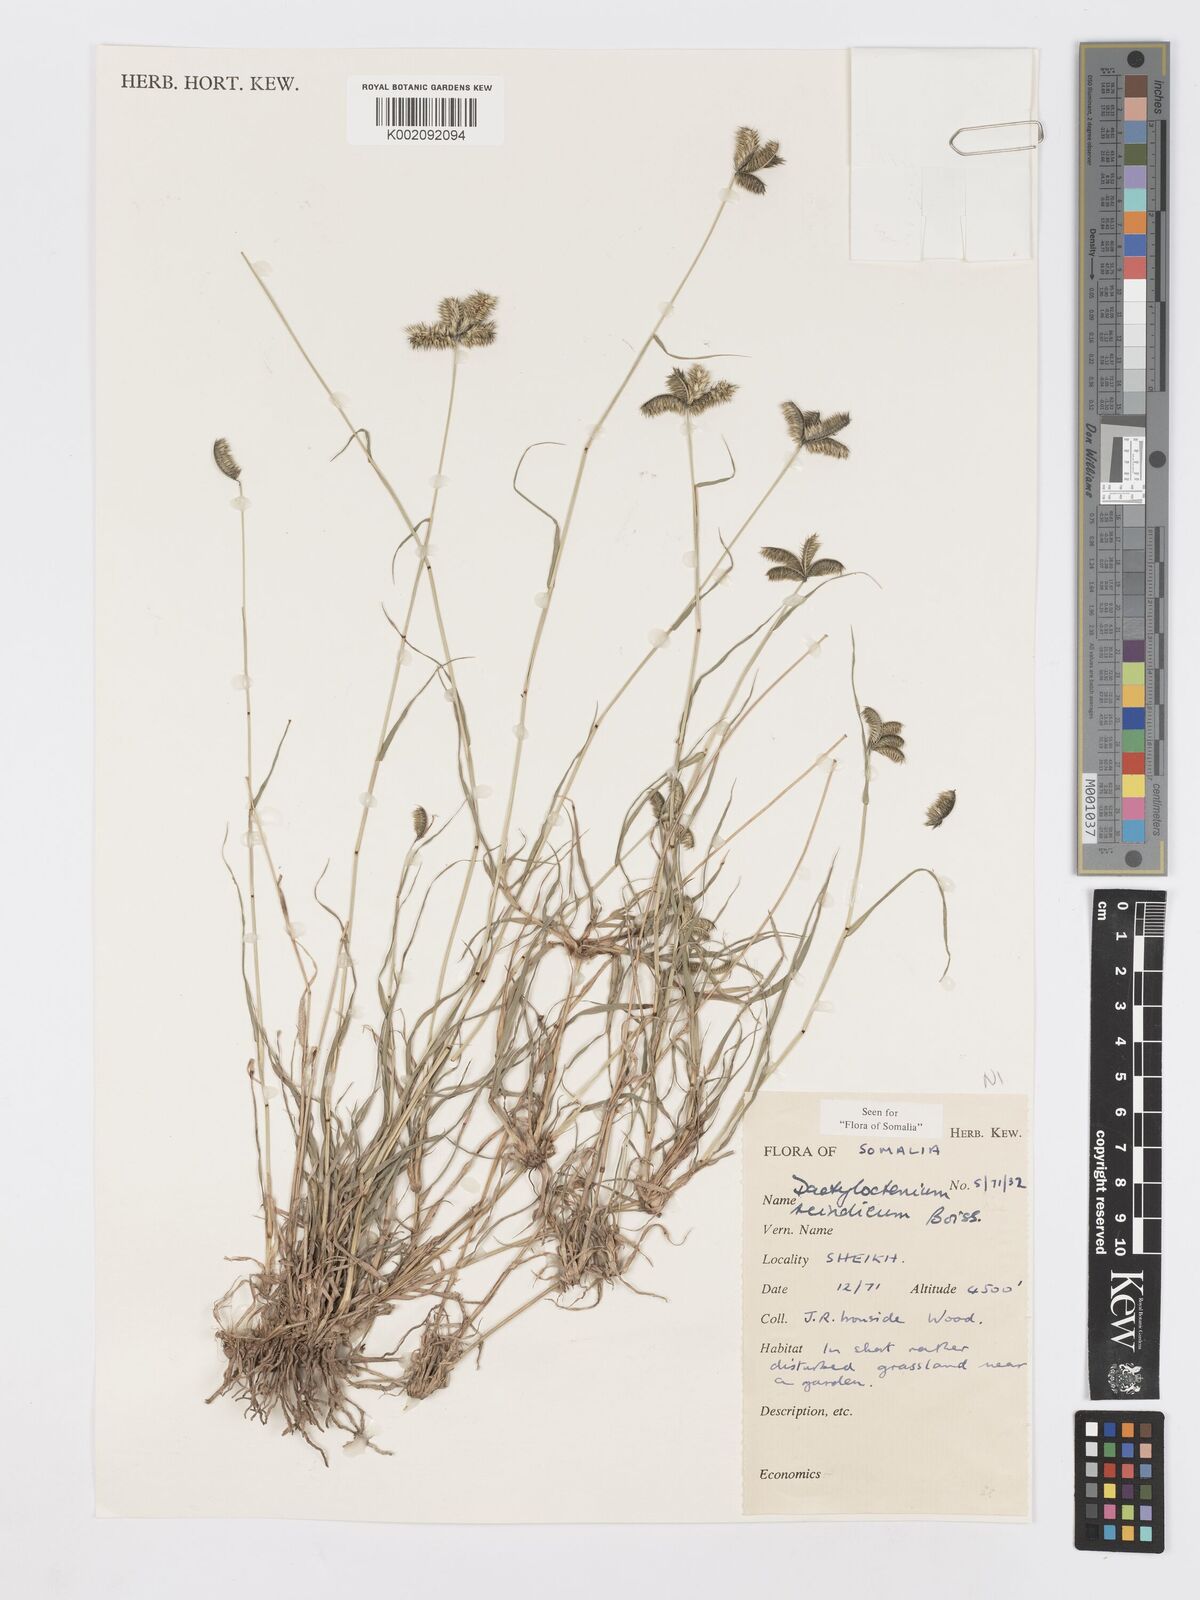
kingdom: Plantae
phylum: Tracheophyta
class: Liliopsida
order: Poales
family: Poaceae
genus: Dactyloctenium
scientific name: Dactyloctenium scindicum
